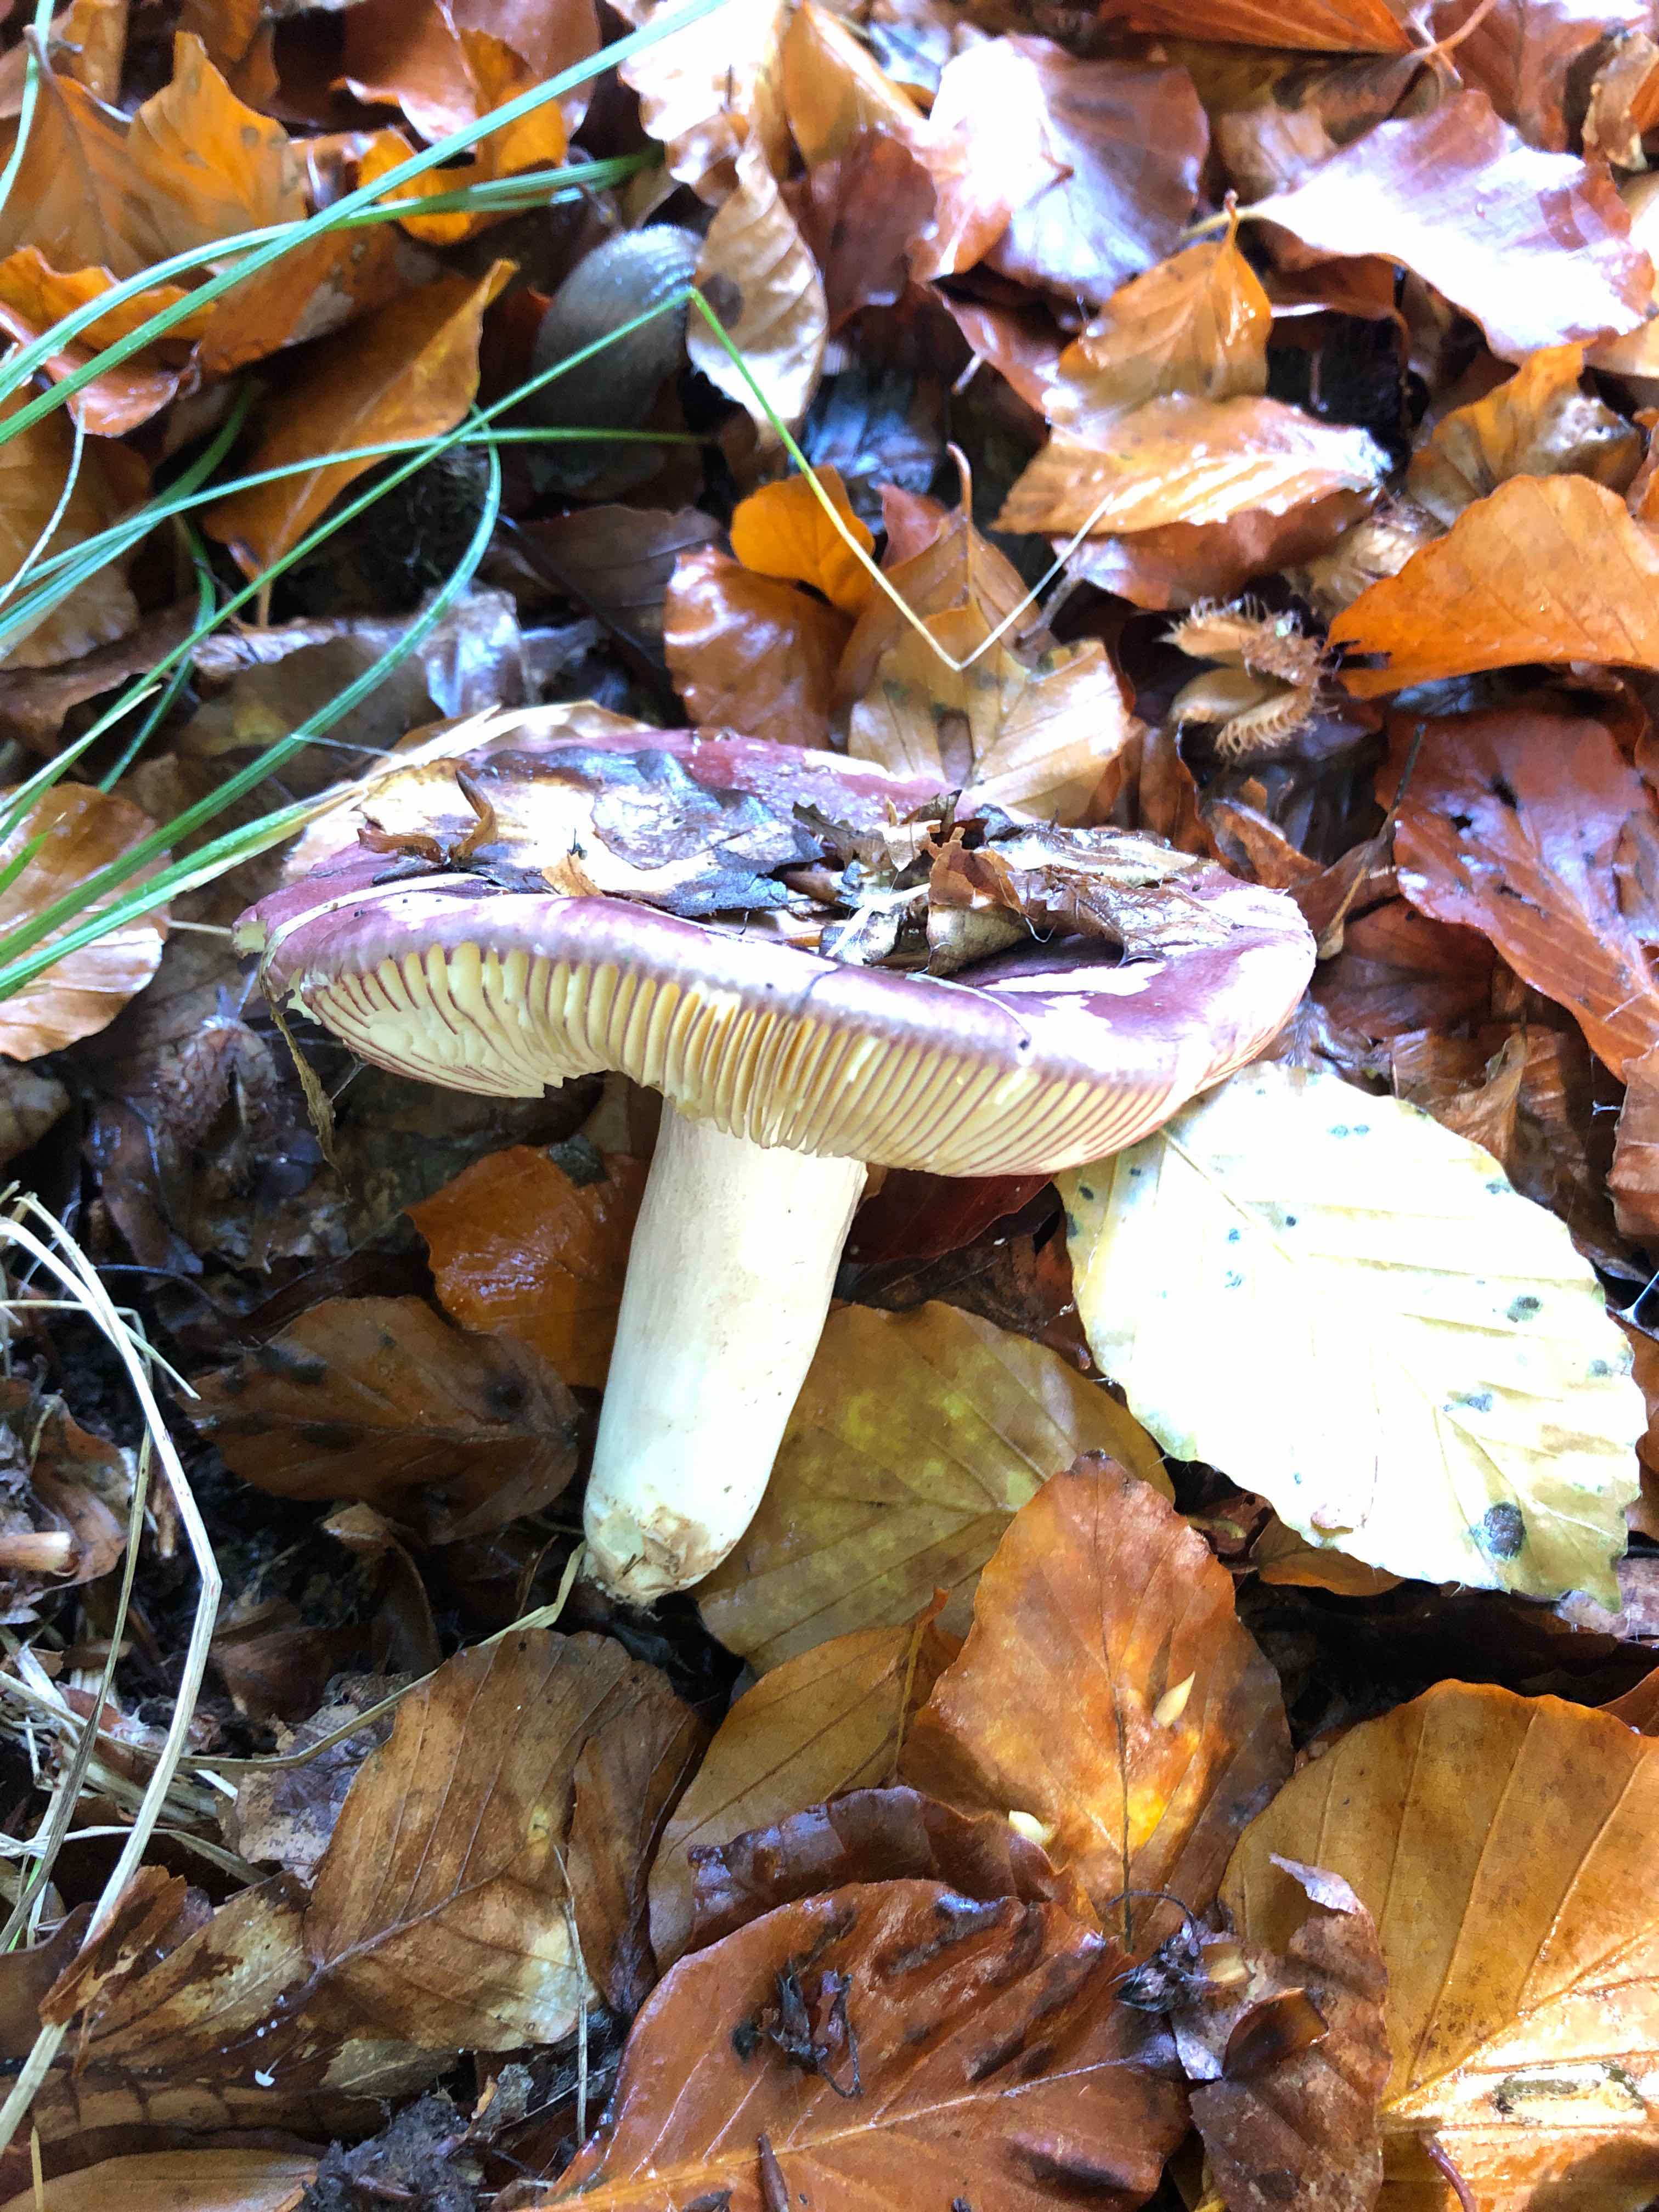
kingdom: Fungi
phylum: Basidiomycota
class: Agaricomycetes
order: Russulales
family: Russulaceae
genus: Russula
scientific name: Russula
